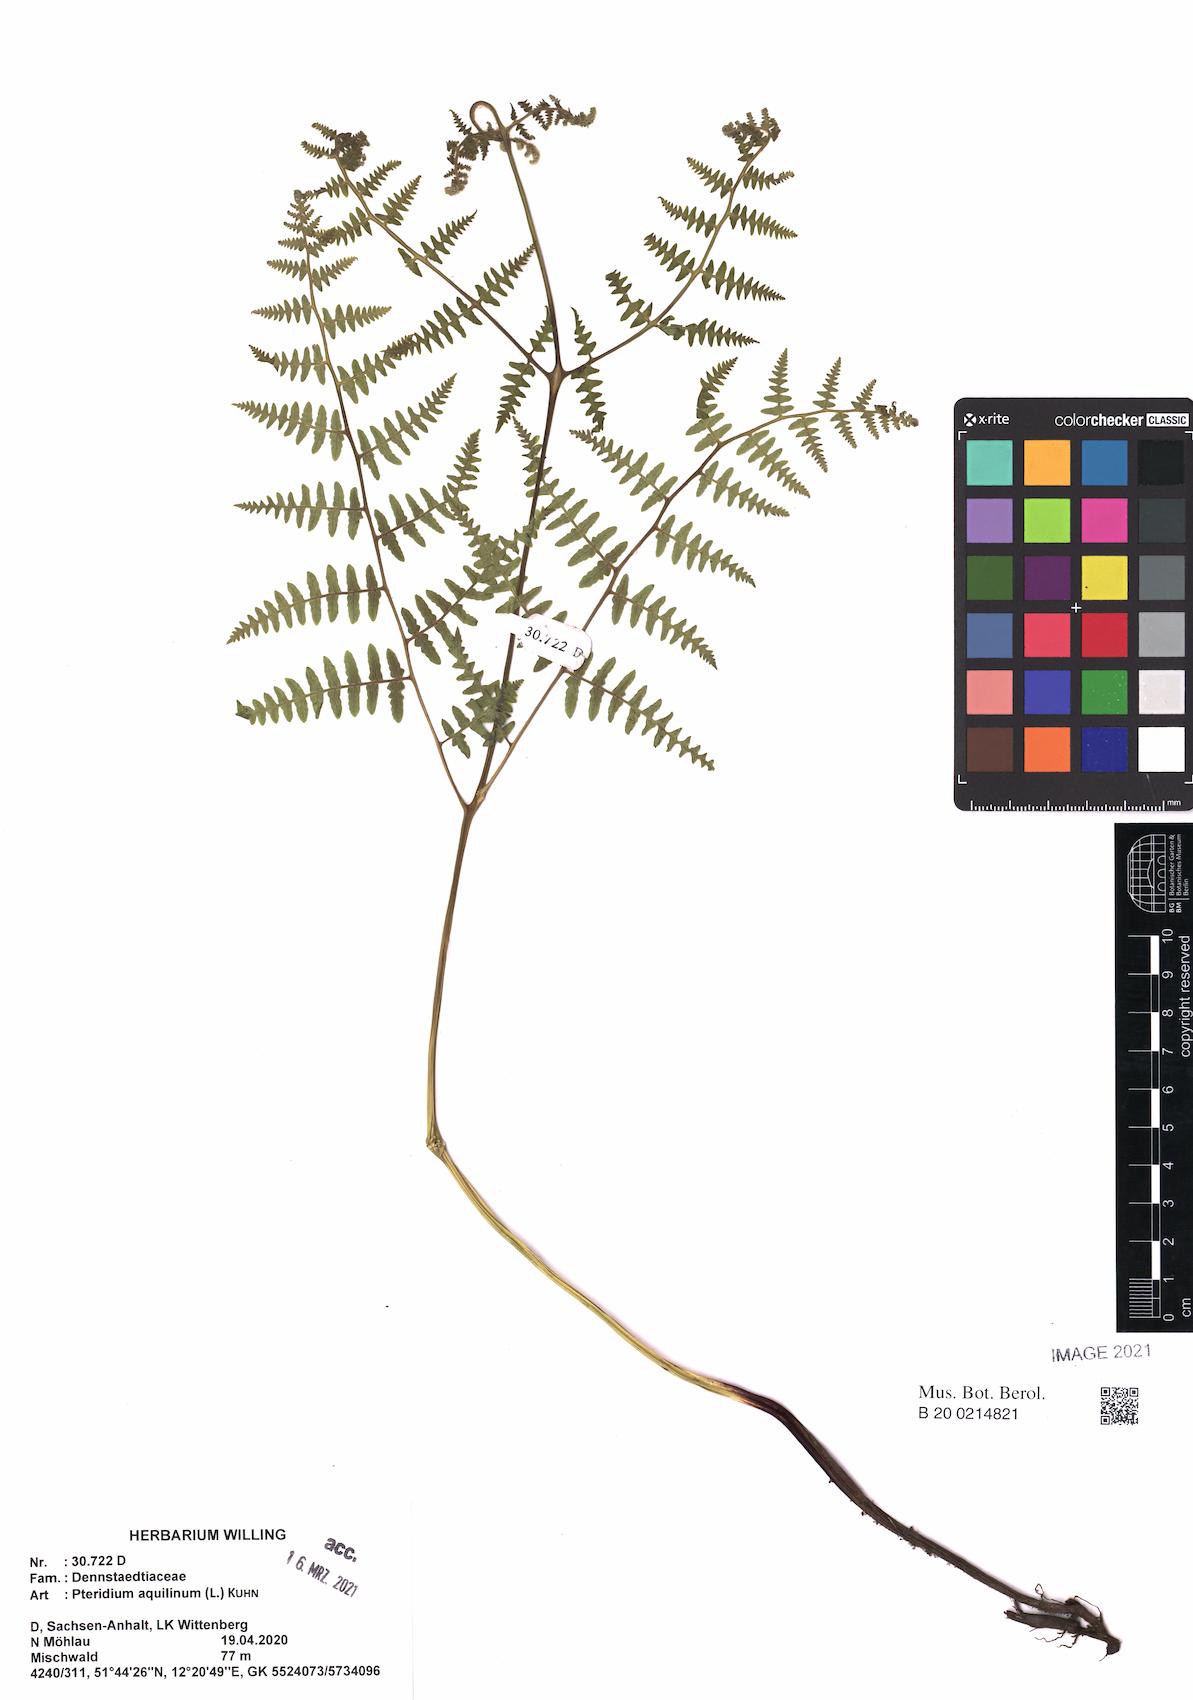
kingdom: Plantae
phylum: Tracheophyta
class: Polypodiopsida
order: Polypodiales
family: Dennstaedtiaceae
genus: Pteridium
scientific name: Pteridium aquilinum
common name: Bracken
